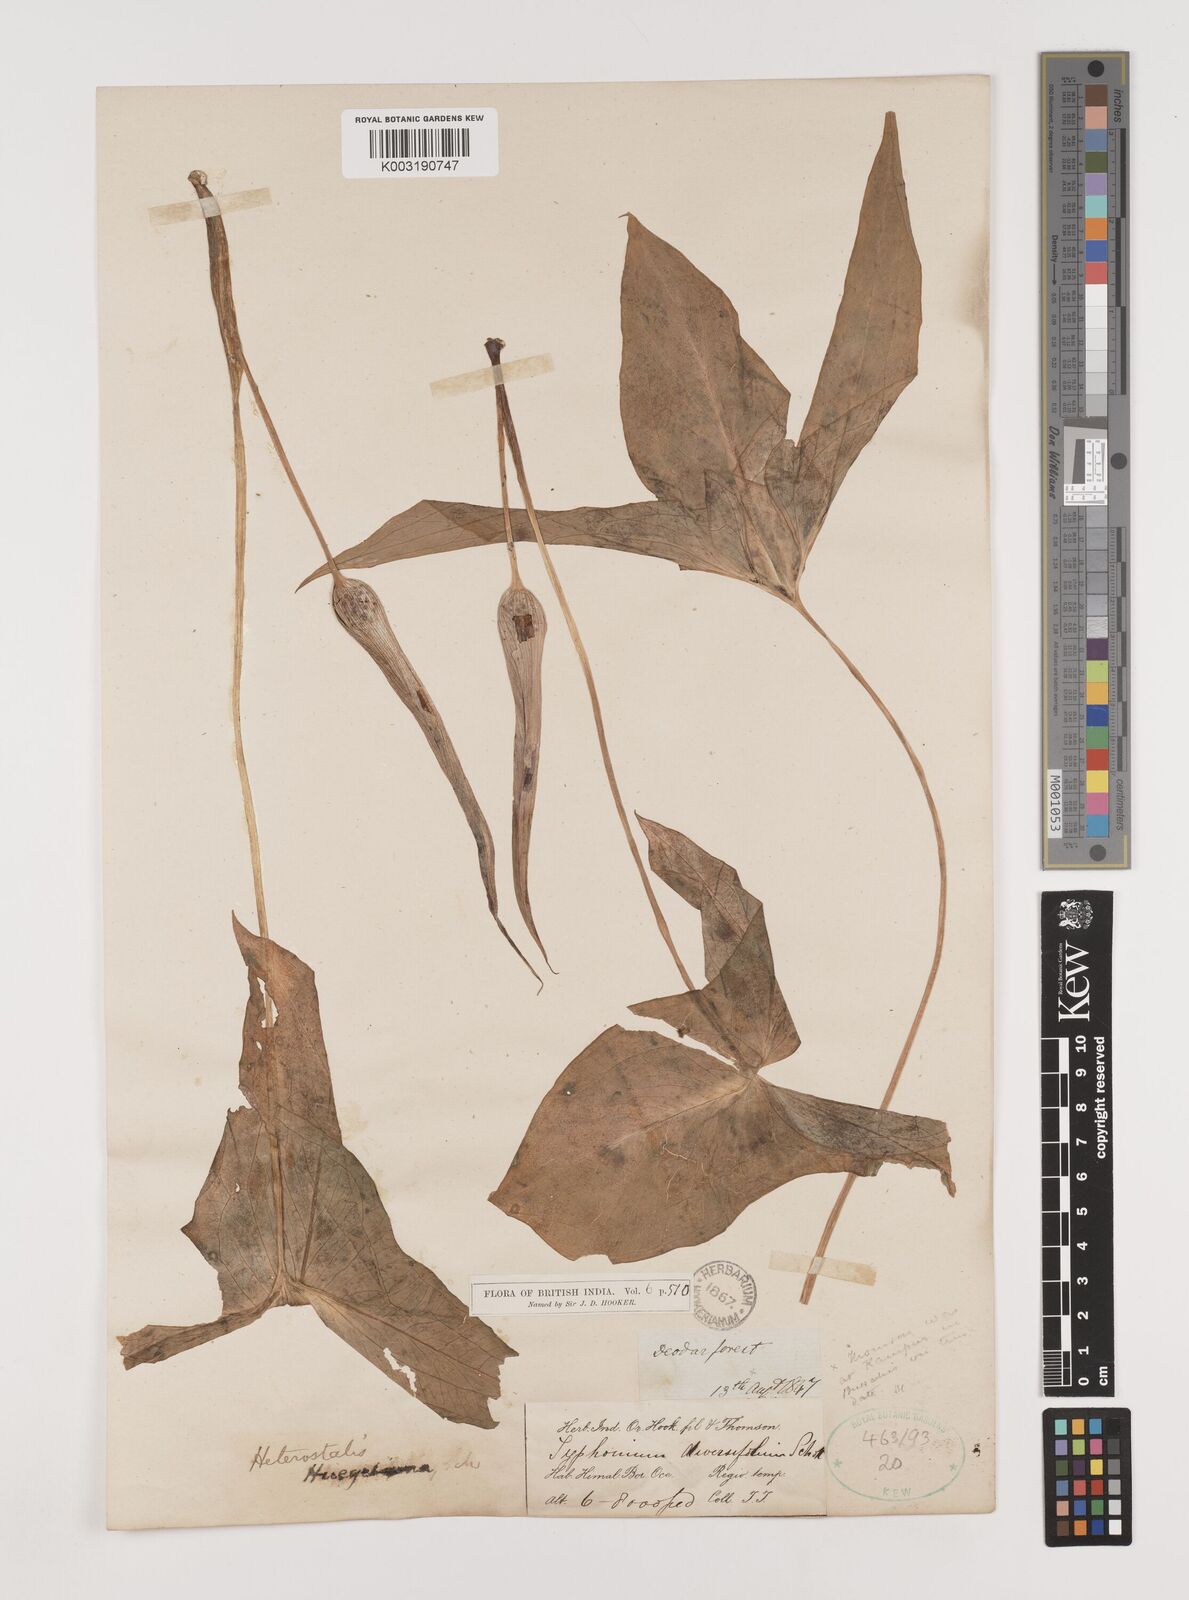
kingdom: Plantae
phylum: Tracheophyta
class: Liliopsida
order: Alismatales
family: Araceae
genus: Sauromatum
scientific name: Sauromatum diversifolium
